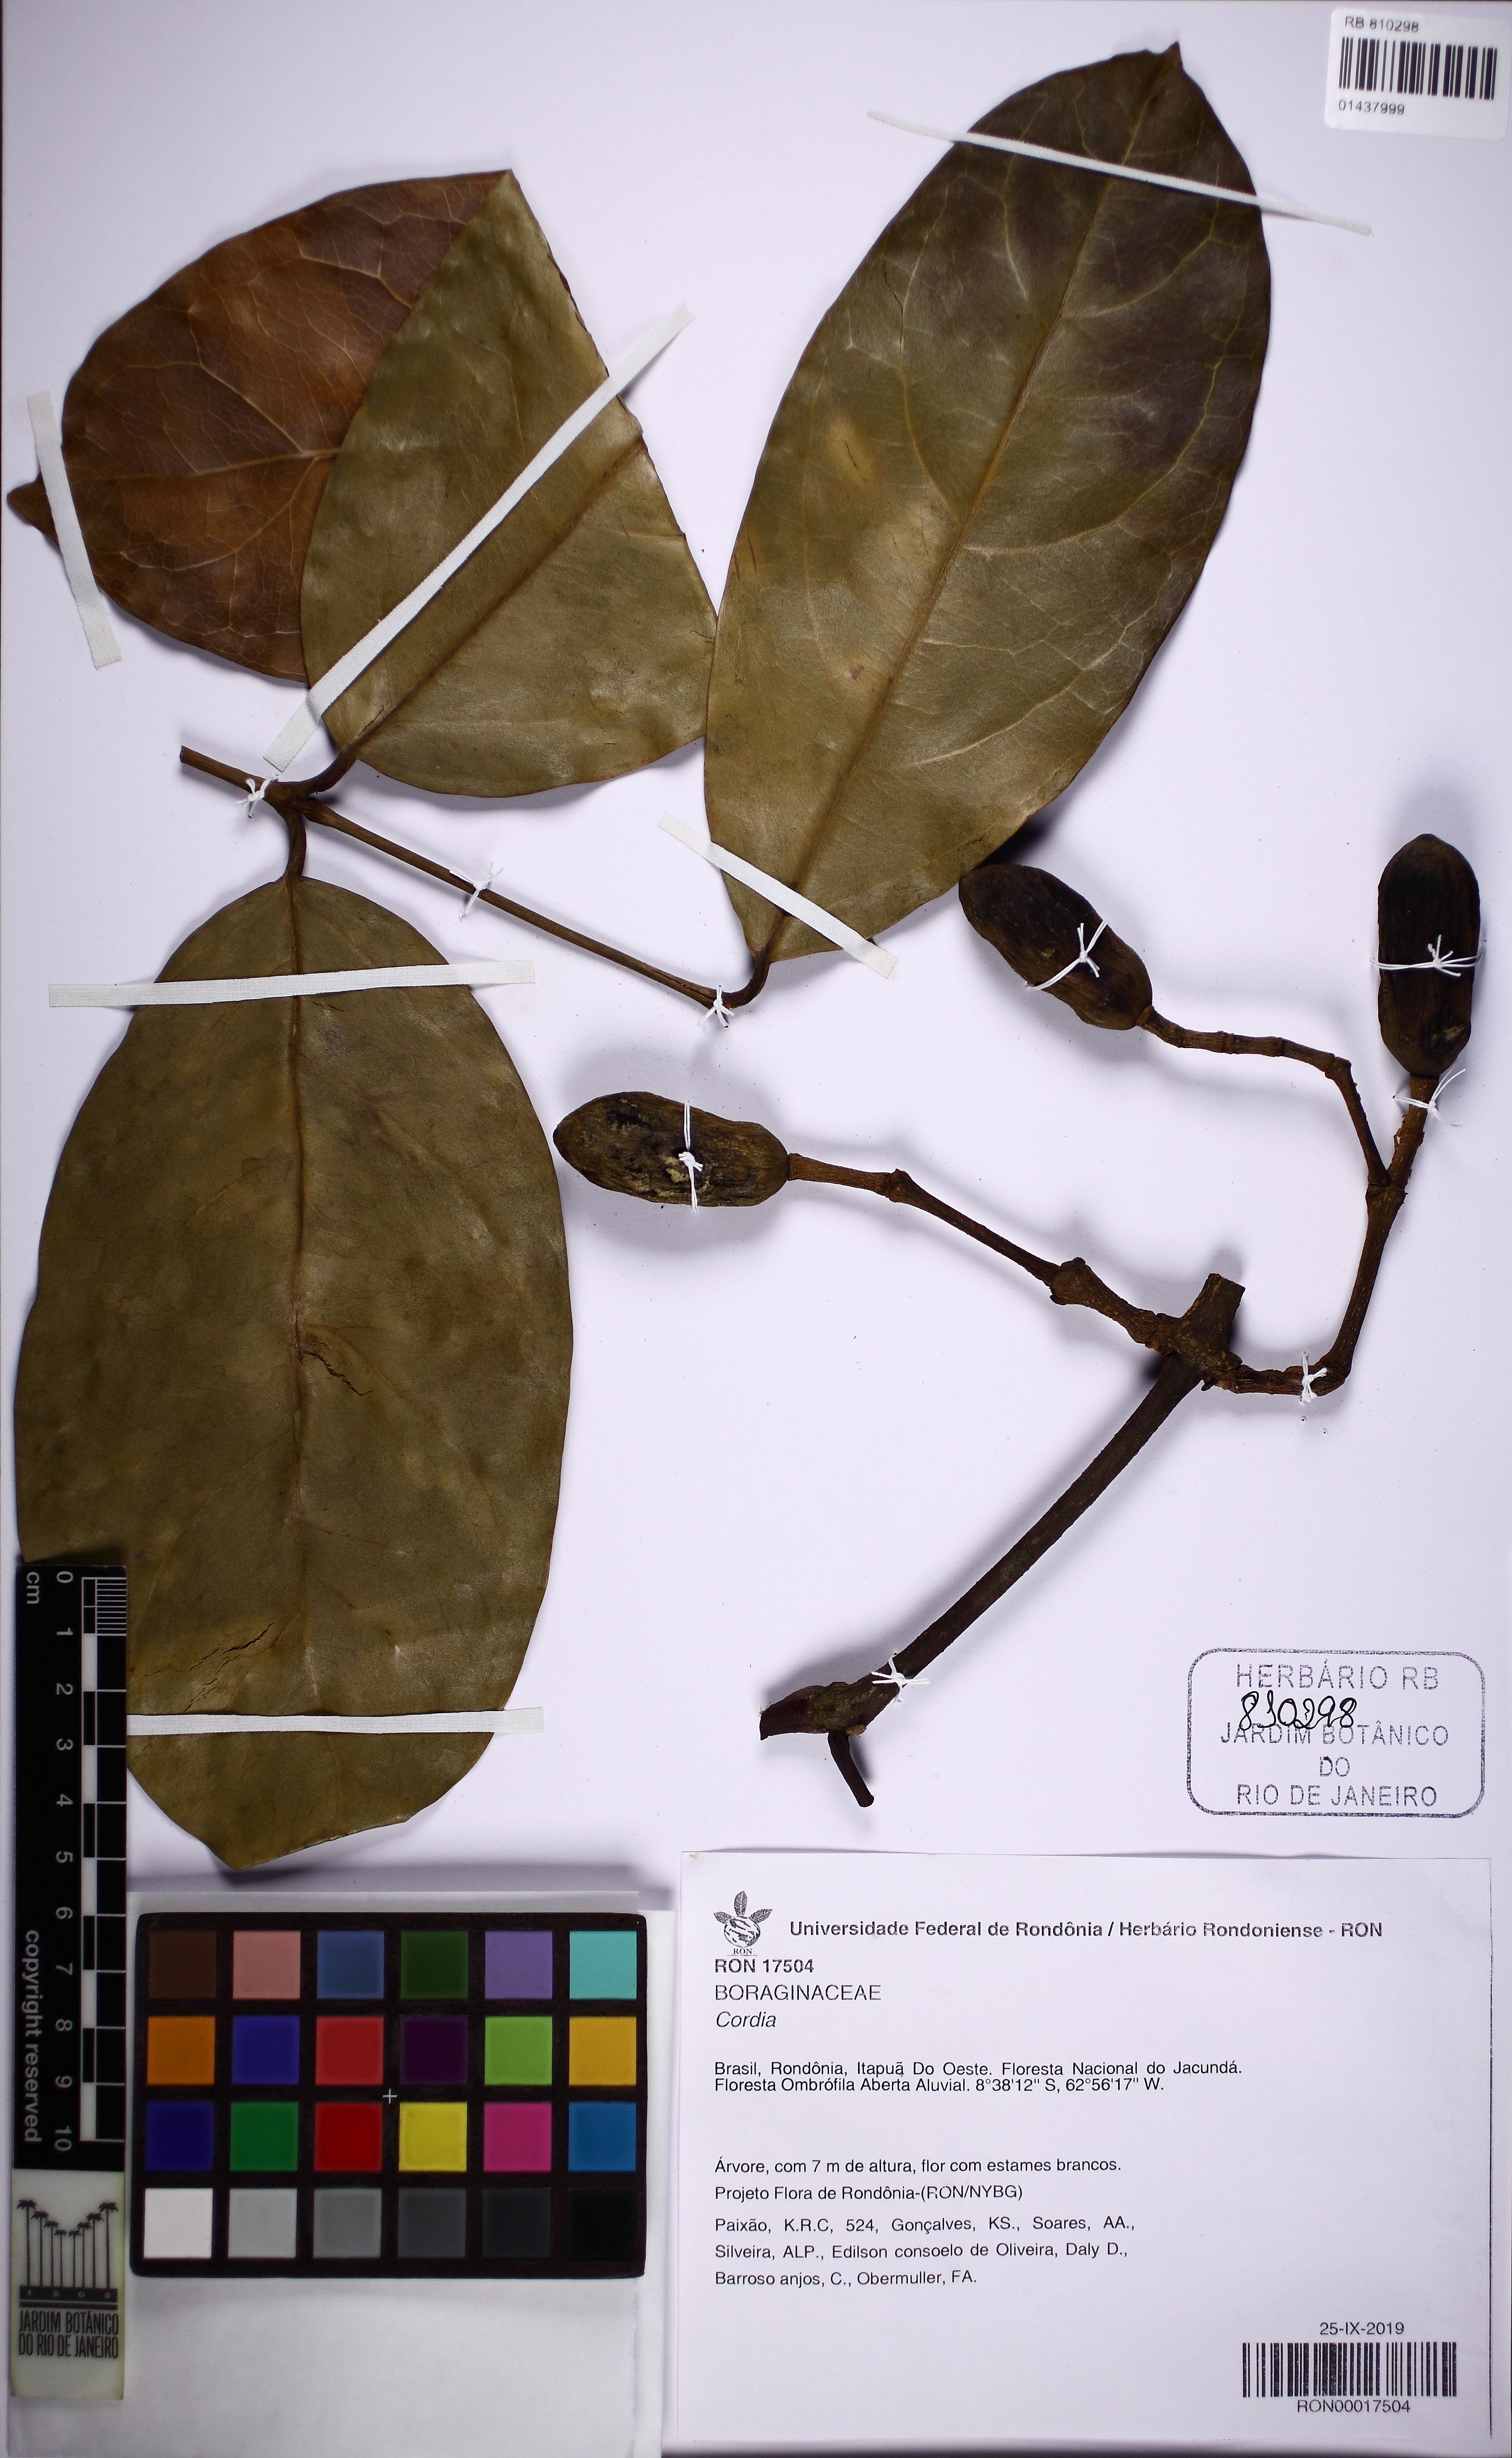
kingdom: Plantae
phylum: Tracheophyta
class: Magnoliopsida
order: Boraginales
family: Cordiaceae
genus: Cordia
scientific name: Cordia
